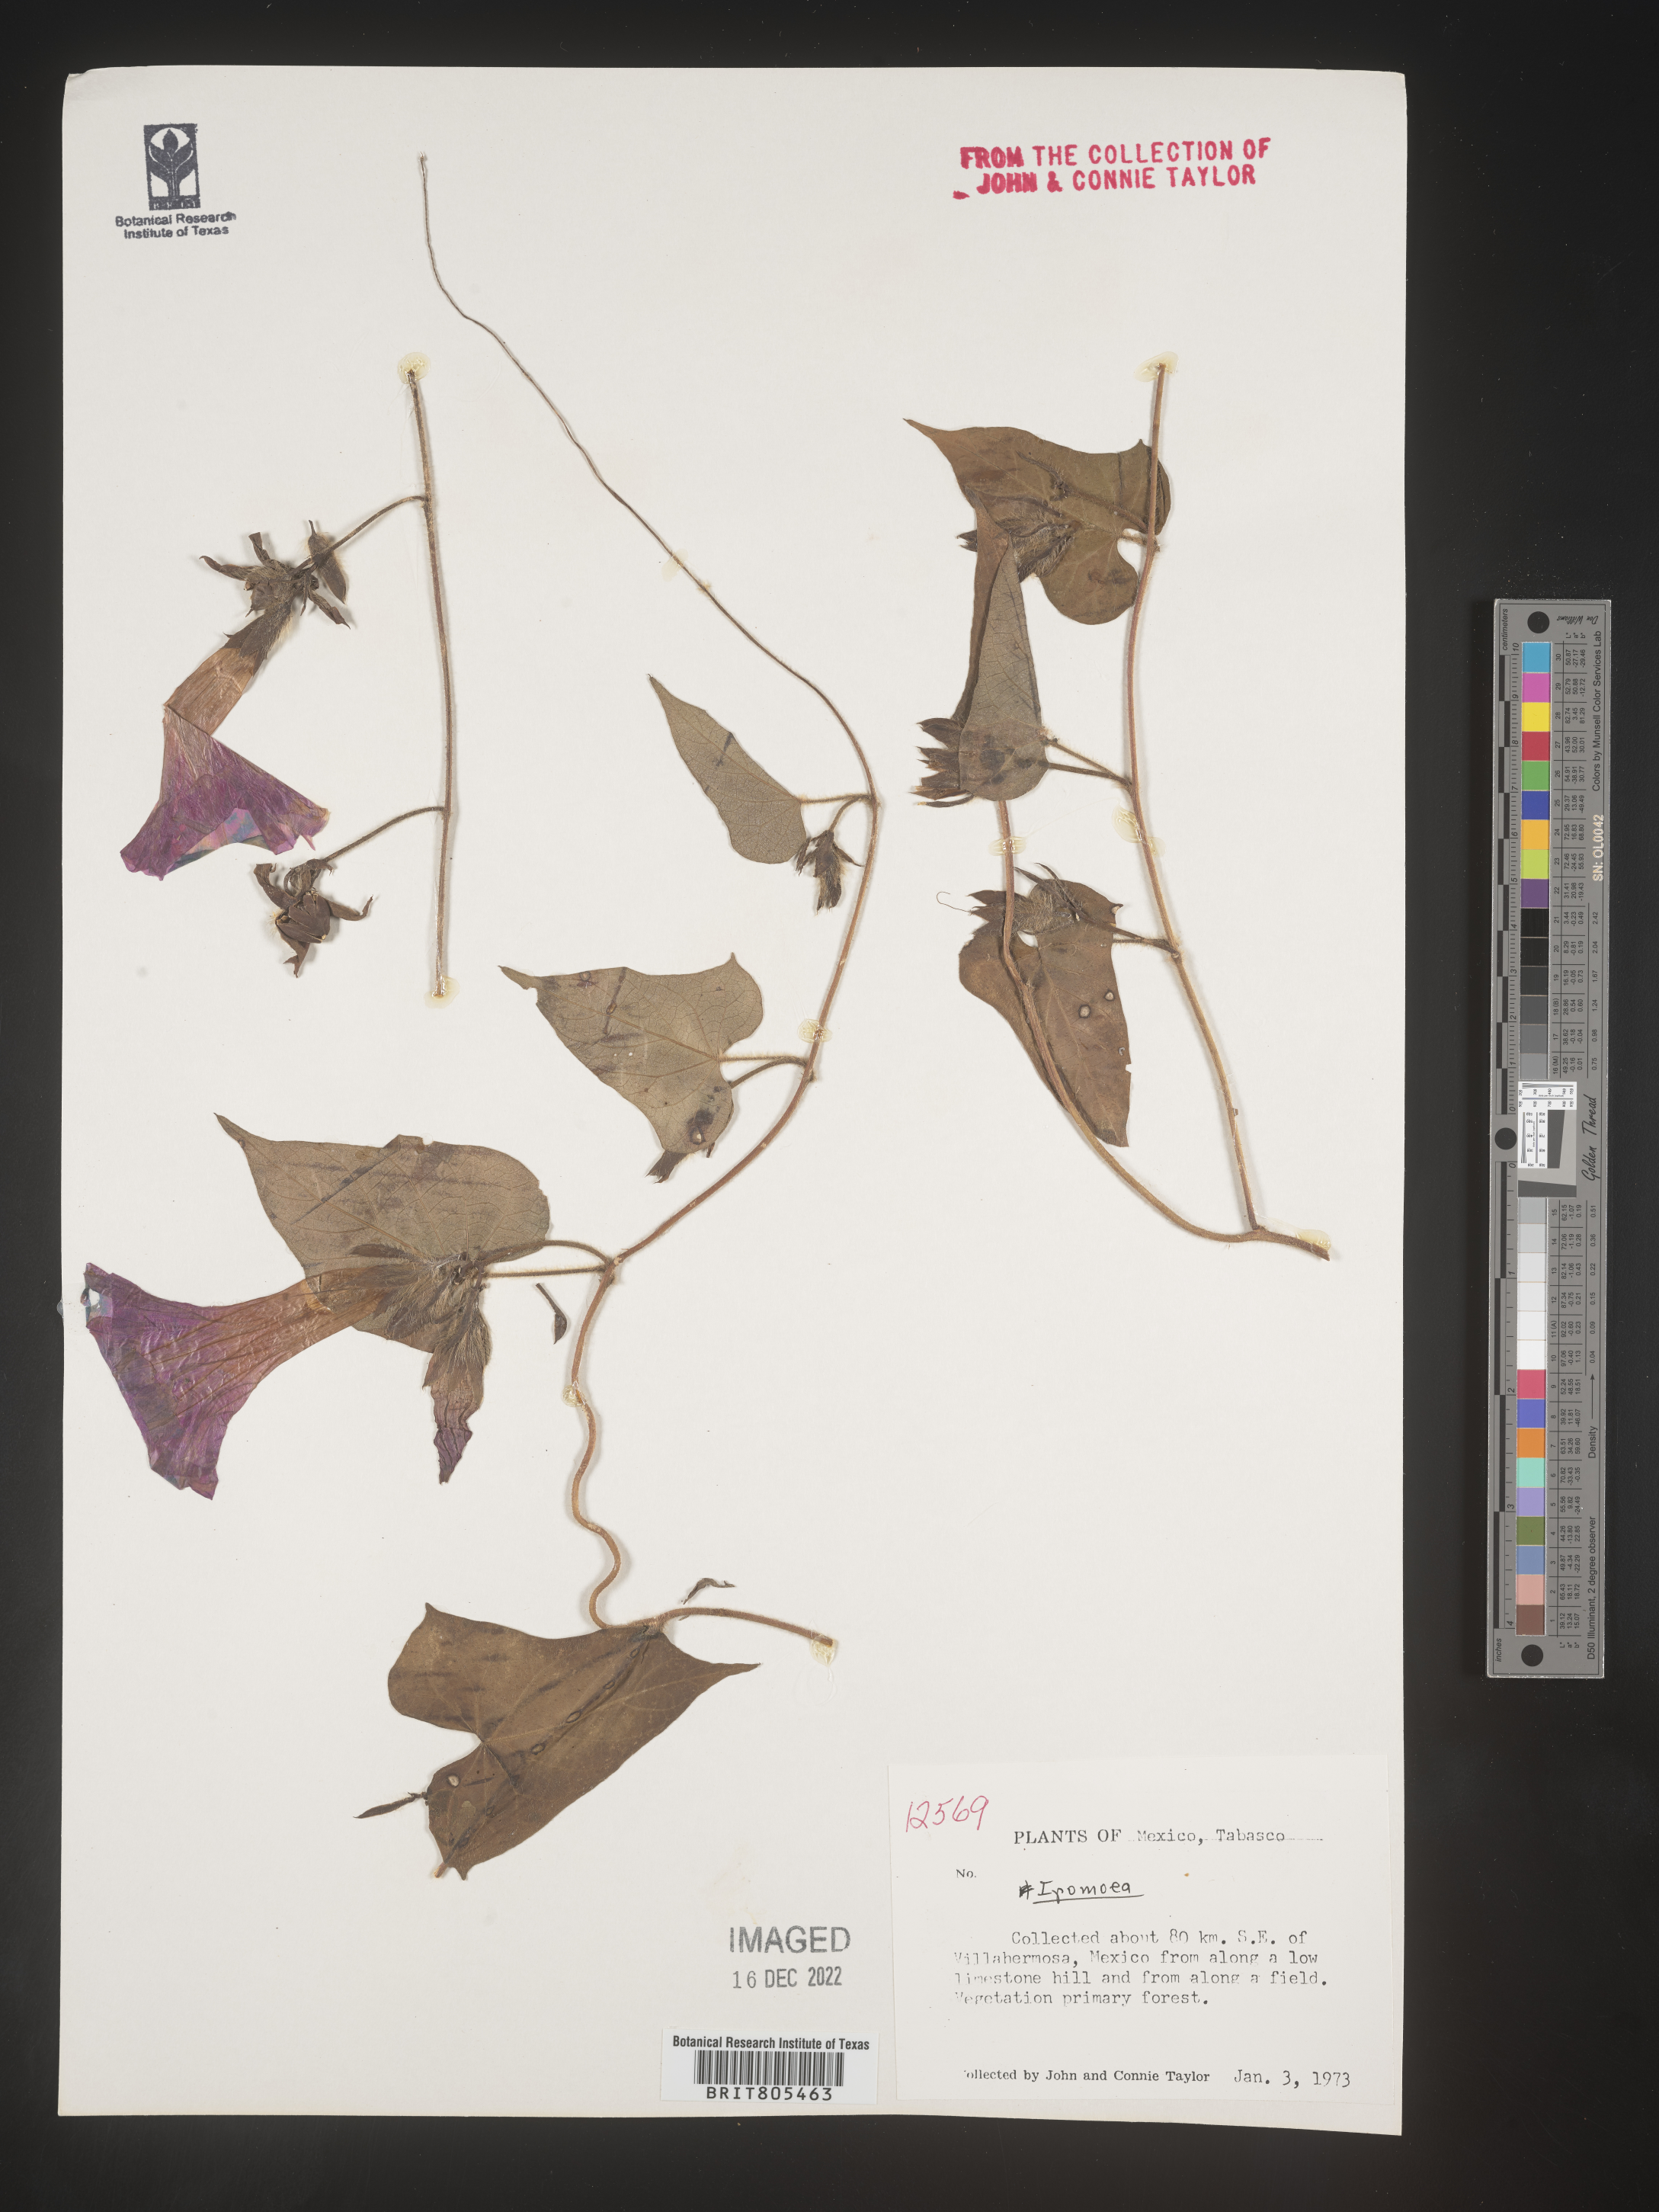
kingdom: Plantae
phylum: Tracheophyta
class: Magnoliopsida
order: Solanales
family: Convolvulaceae
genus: Ipomoea
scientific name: Ipomoea
